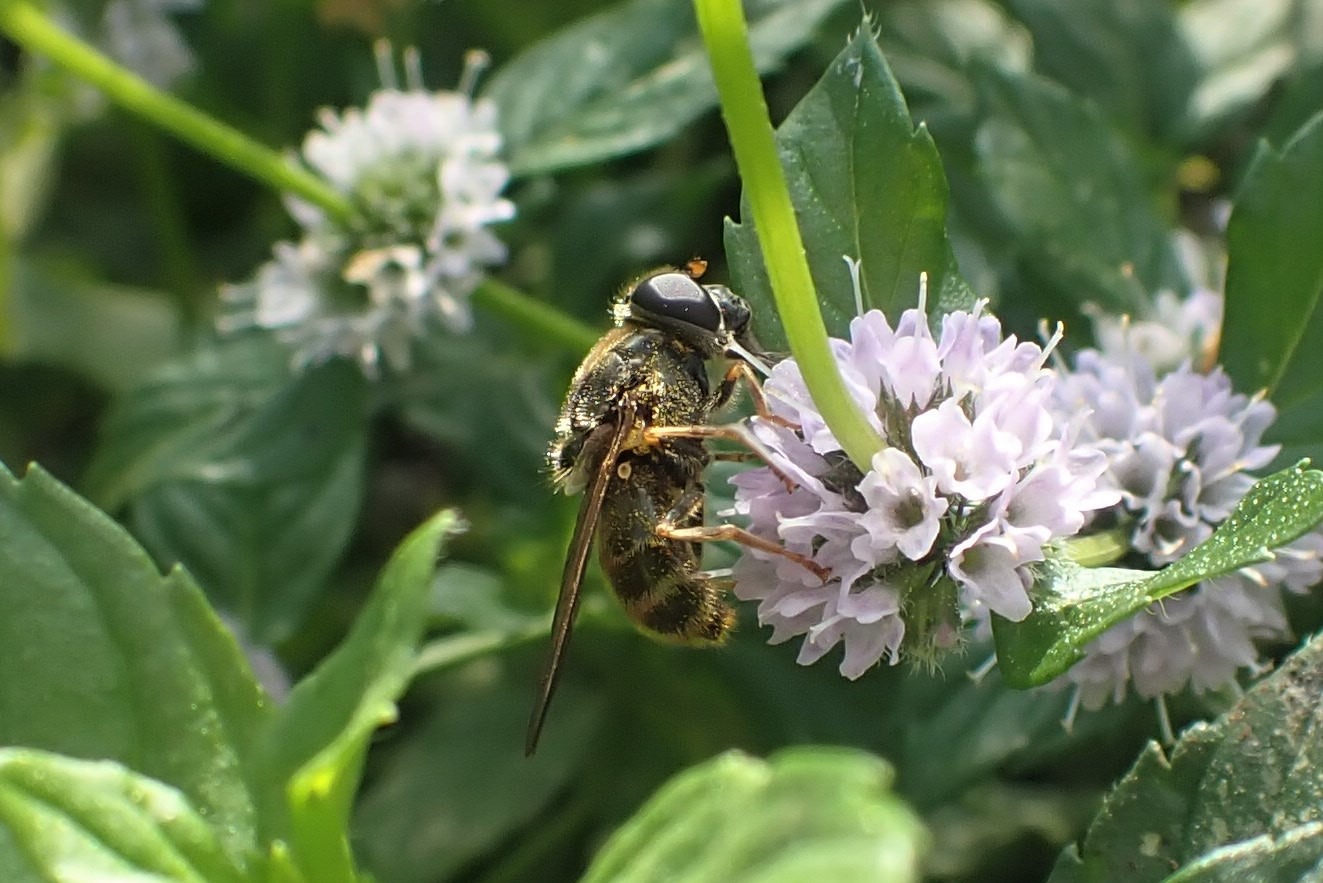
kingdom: Animalia
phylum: Arthropoda
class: Insecta
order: Diptera
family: Syrphidae
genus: Cheilosia
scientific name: Cheilosia himantopus
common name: Hestehov-urtesvirreflue
